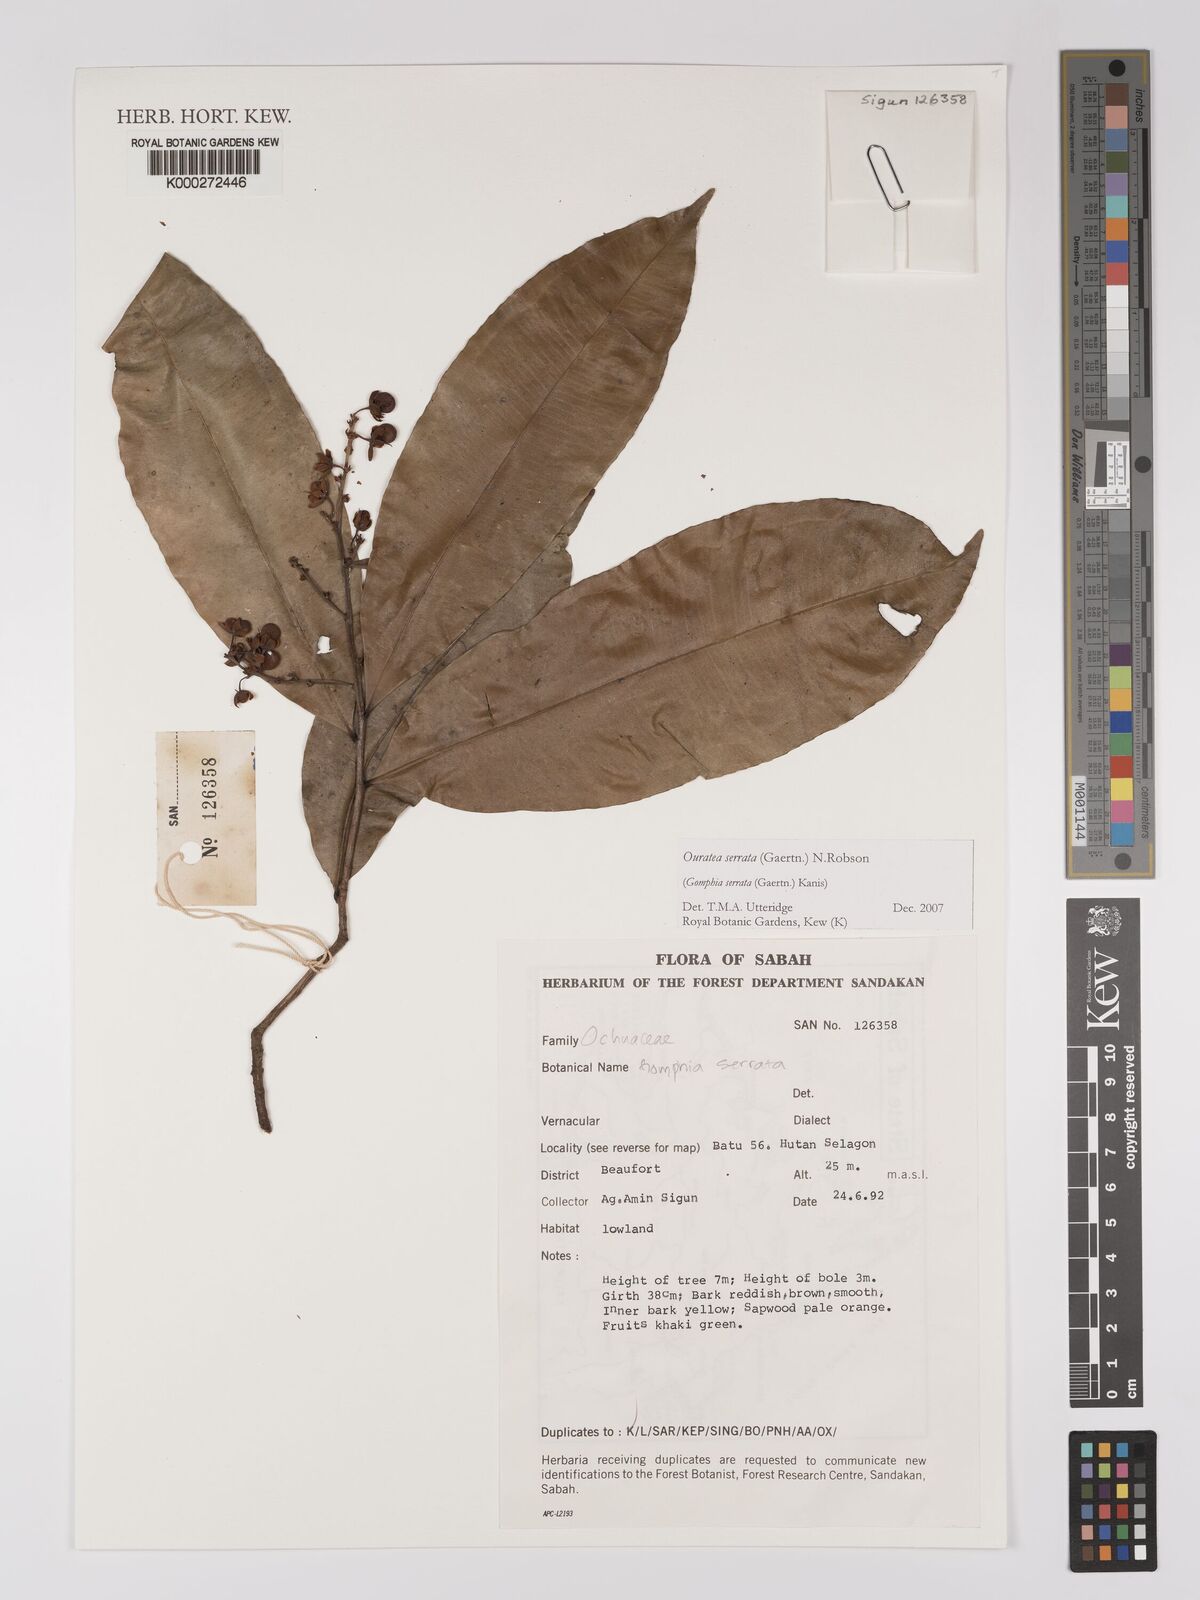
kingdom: Plantae
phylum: Tracheophyta
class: Magnoliopsida
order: Malpighiales
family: Ochnaceae
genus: Gomphia
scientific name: Gomphia serrata
